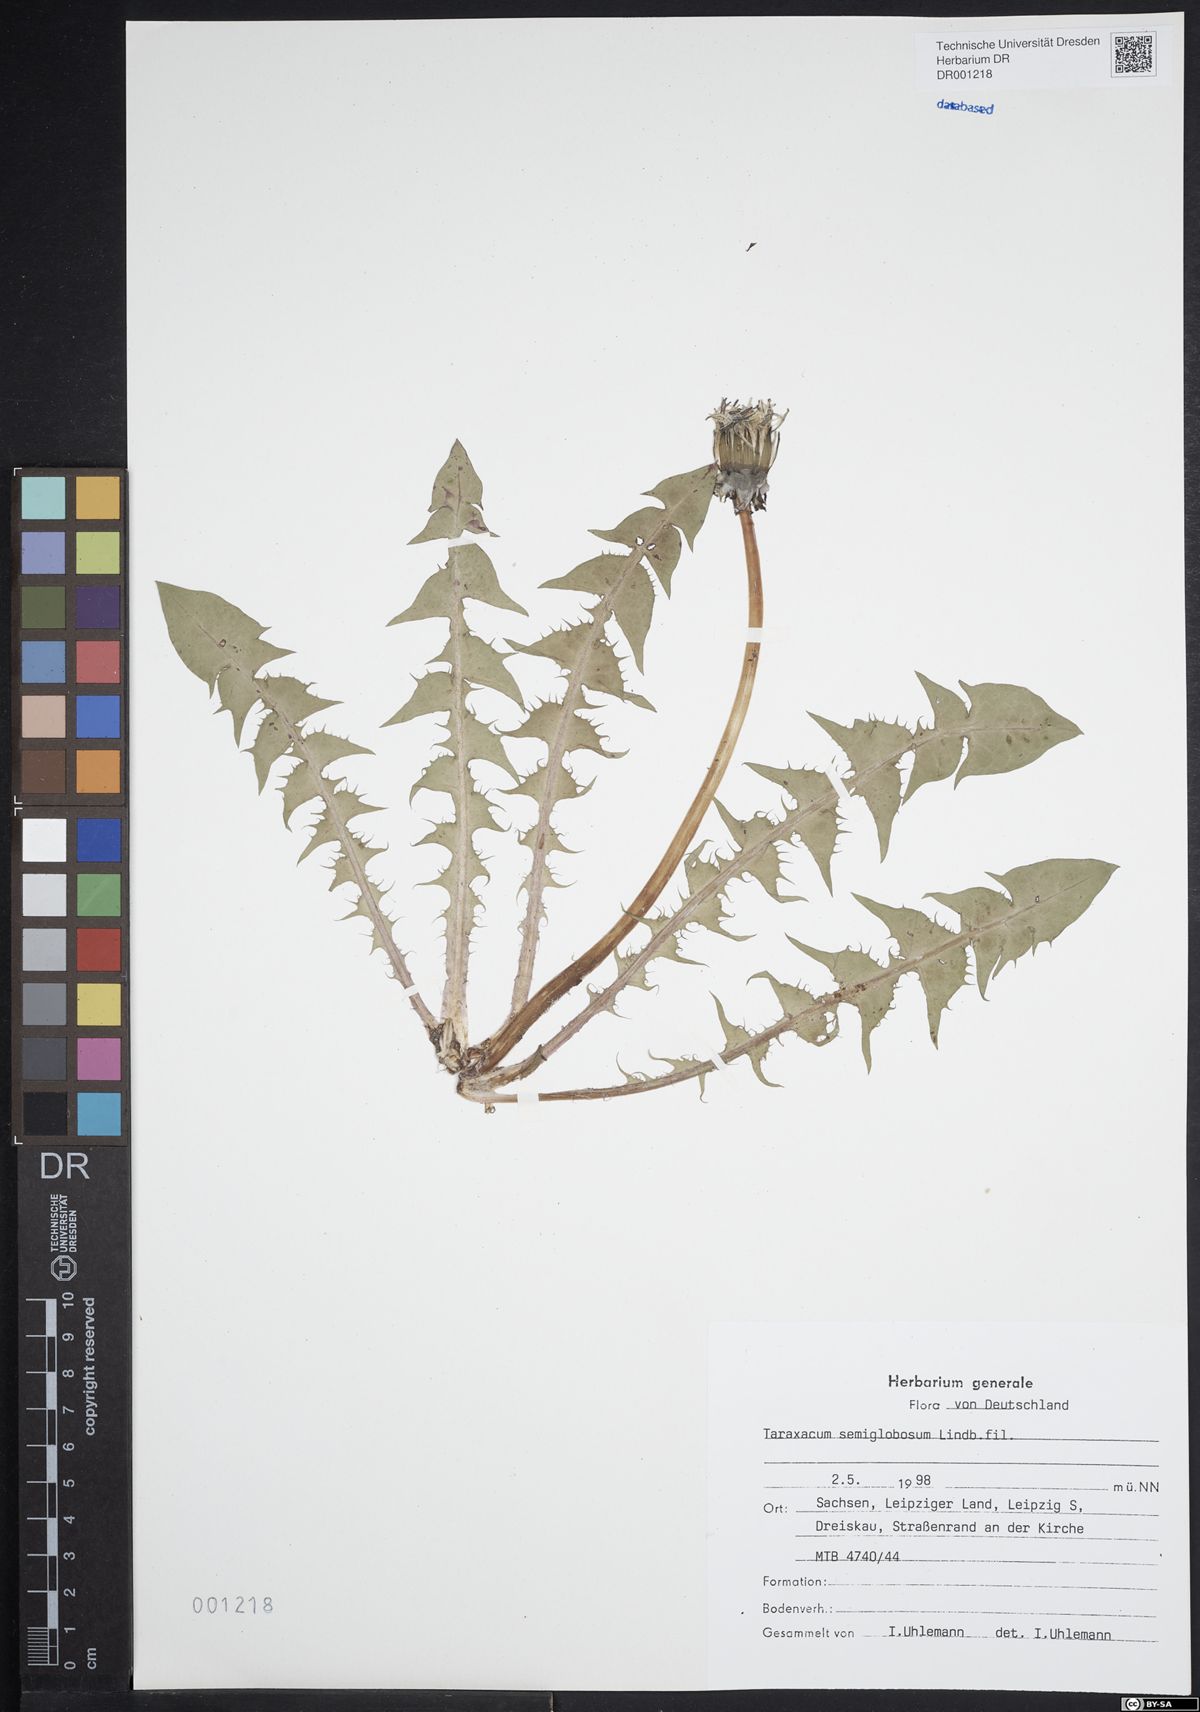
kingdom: Plantae
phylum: Tracheophyta
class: Magnoliopsida
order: Asterales
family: Asteraceae
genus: Taraxacum
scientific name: Taraxacum semiglobosum
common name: Hairy-ribbed dandelion
